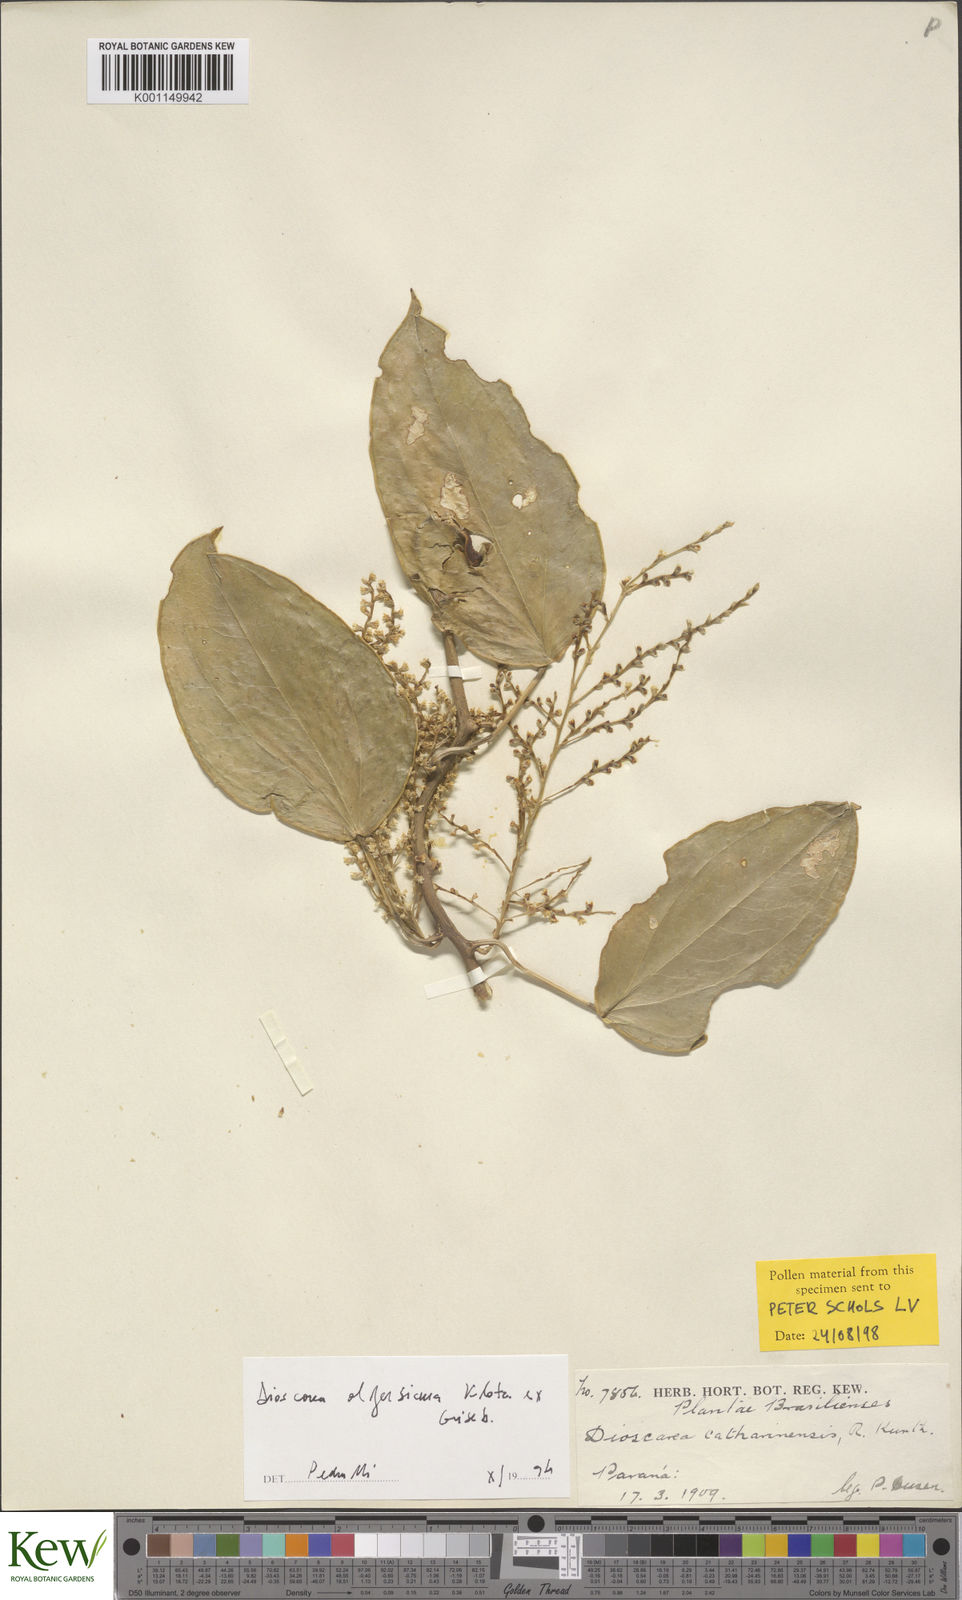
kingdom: Plantae
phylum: Tracheophyta
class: Liliopsida
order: Dioscoreales
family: Dioscoreaceae
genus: Dioscorea
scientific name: Dioscorea olfersiana
